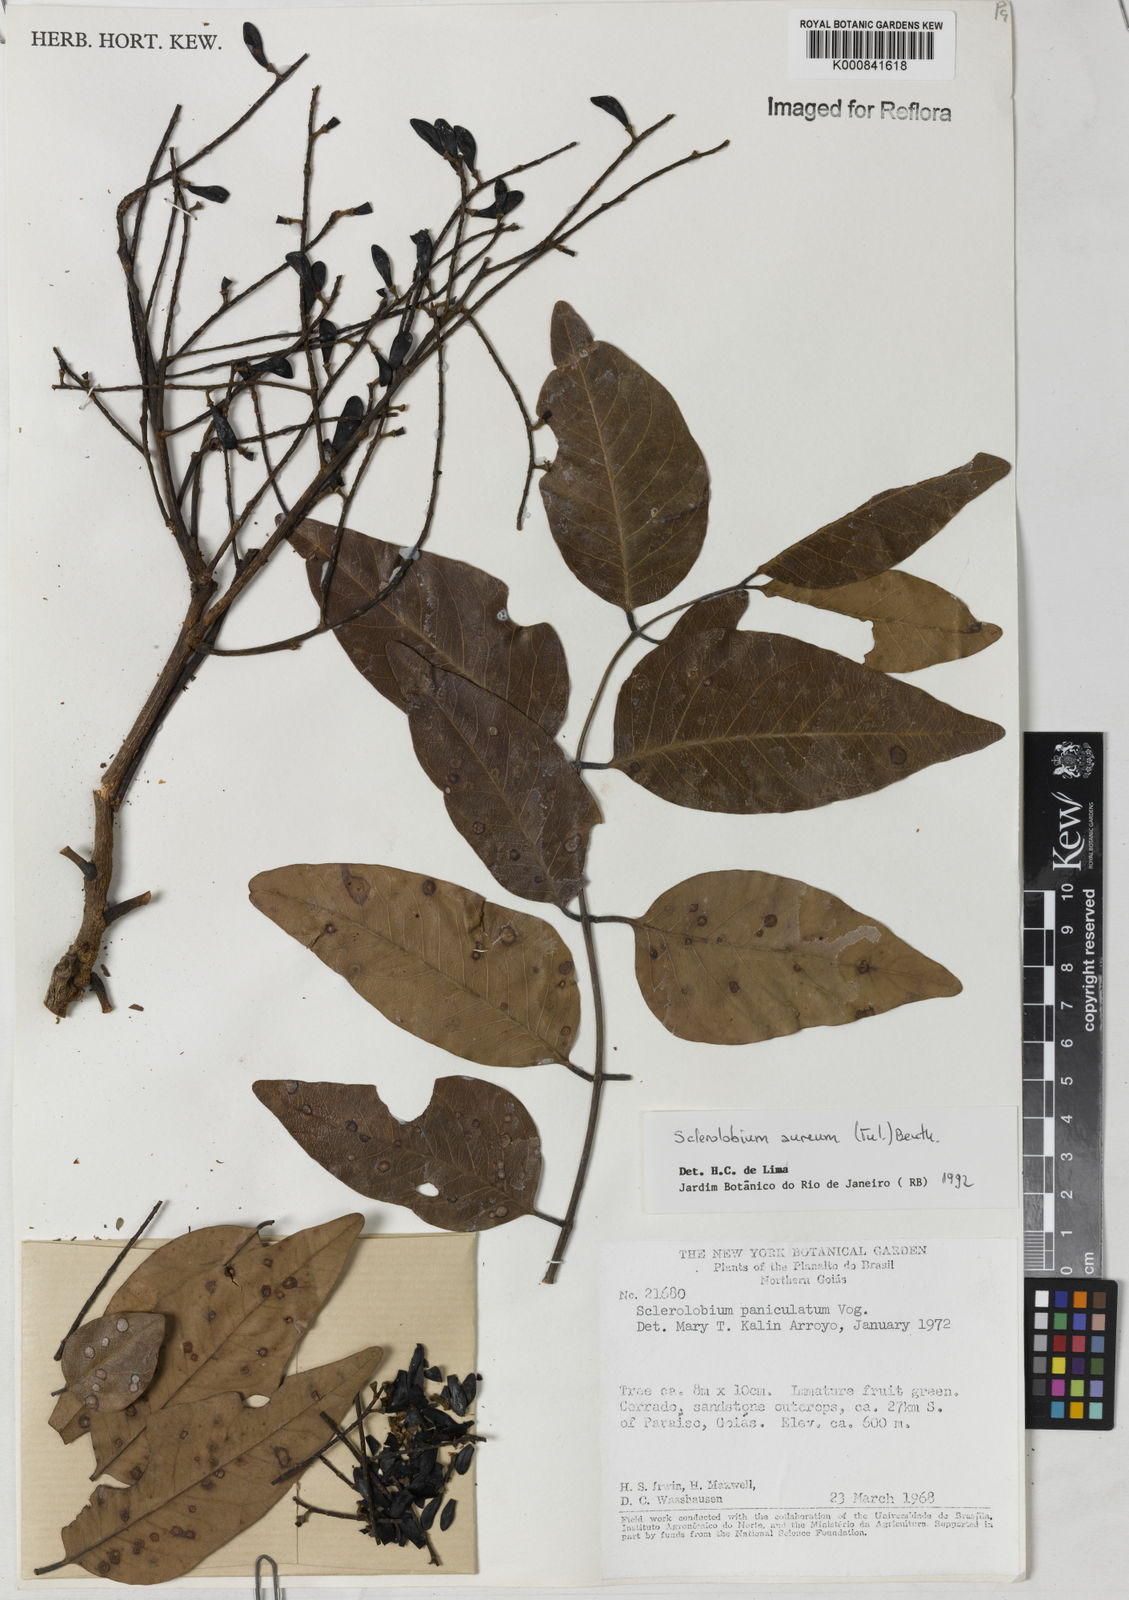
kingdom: Plantae
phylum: Tracheophyta
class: Magnoliopsida
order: Fabales
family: Fabaceae
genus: Tachigali
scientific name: Tachigali aurea
